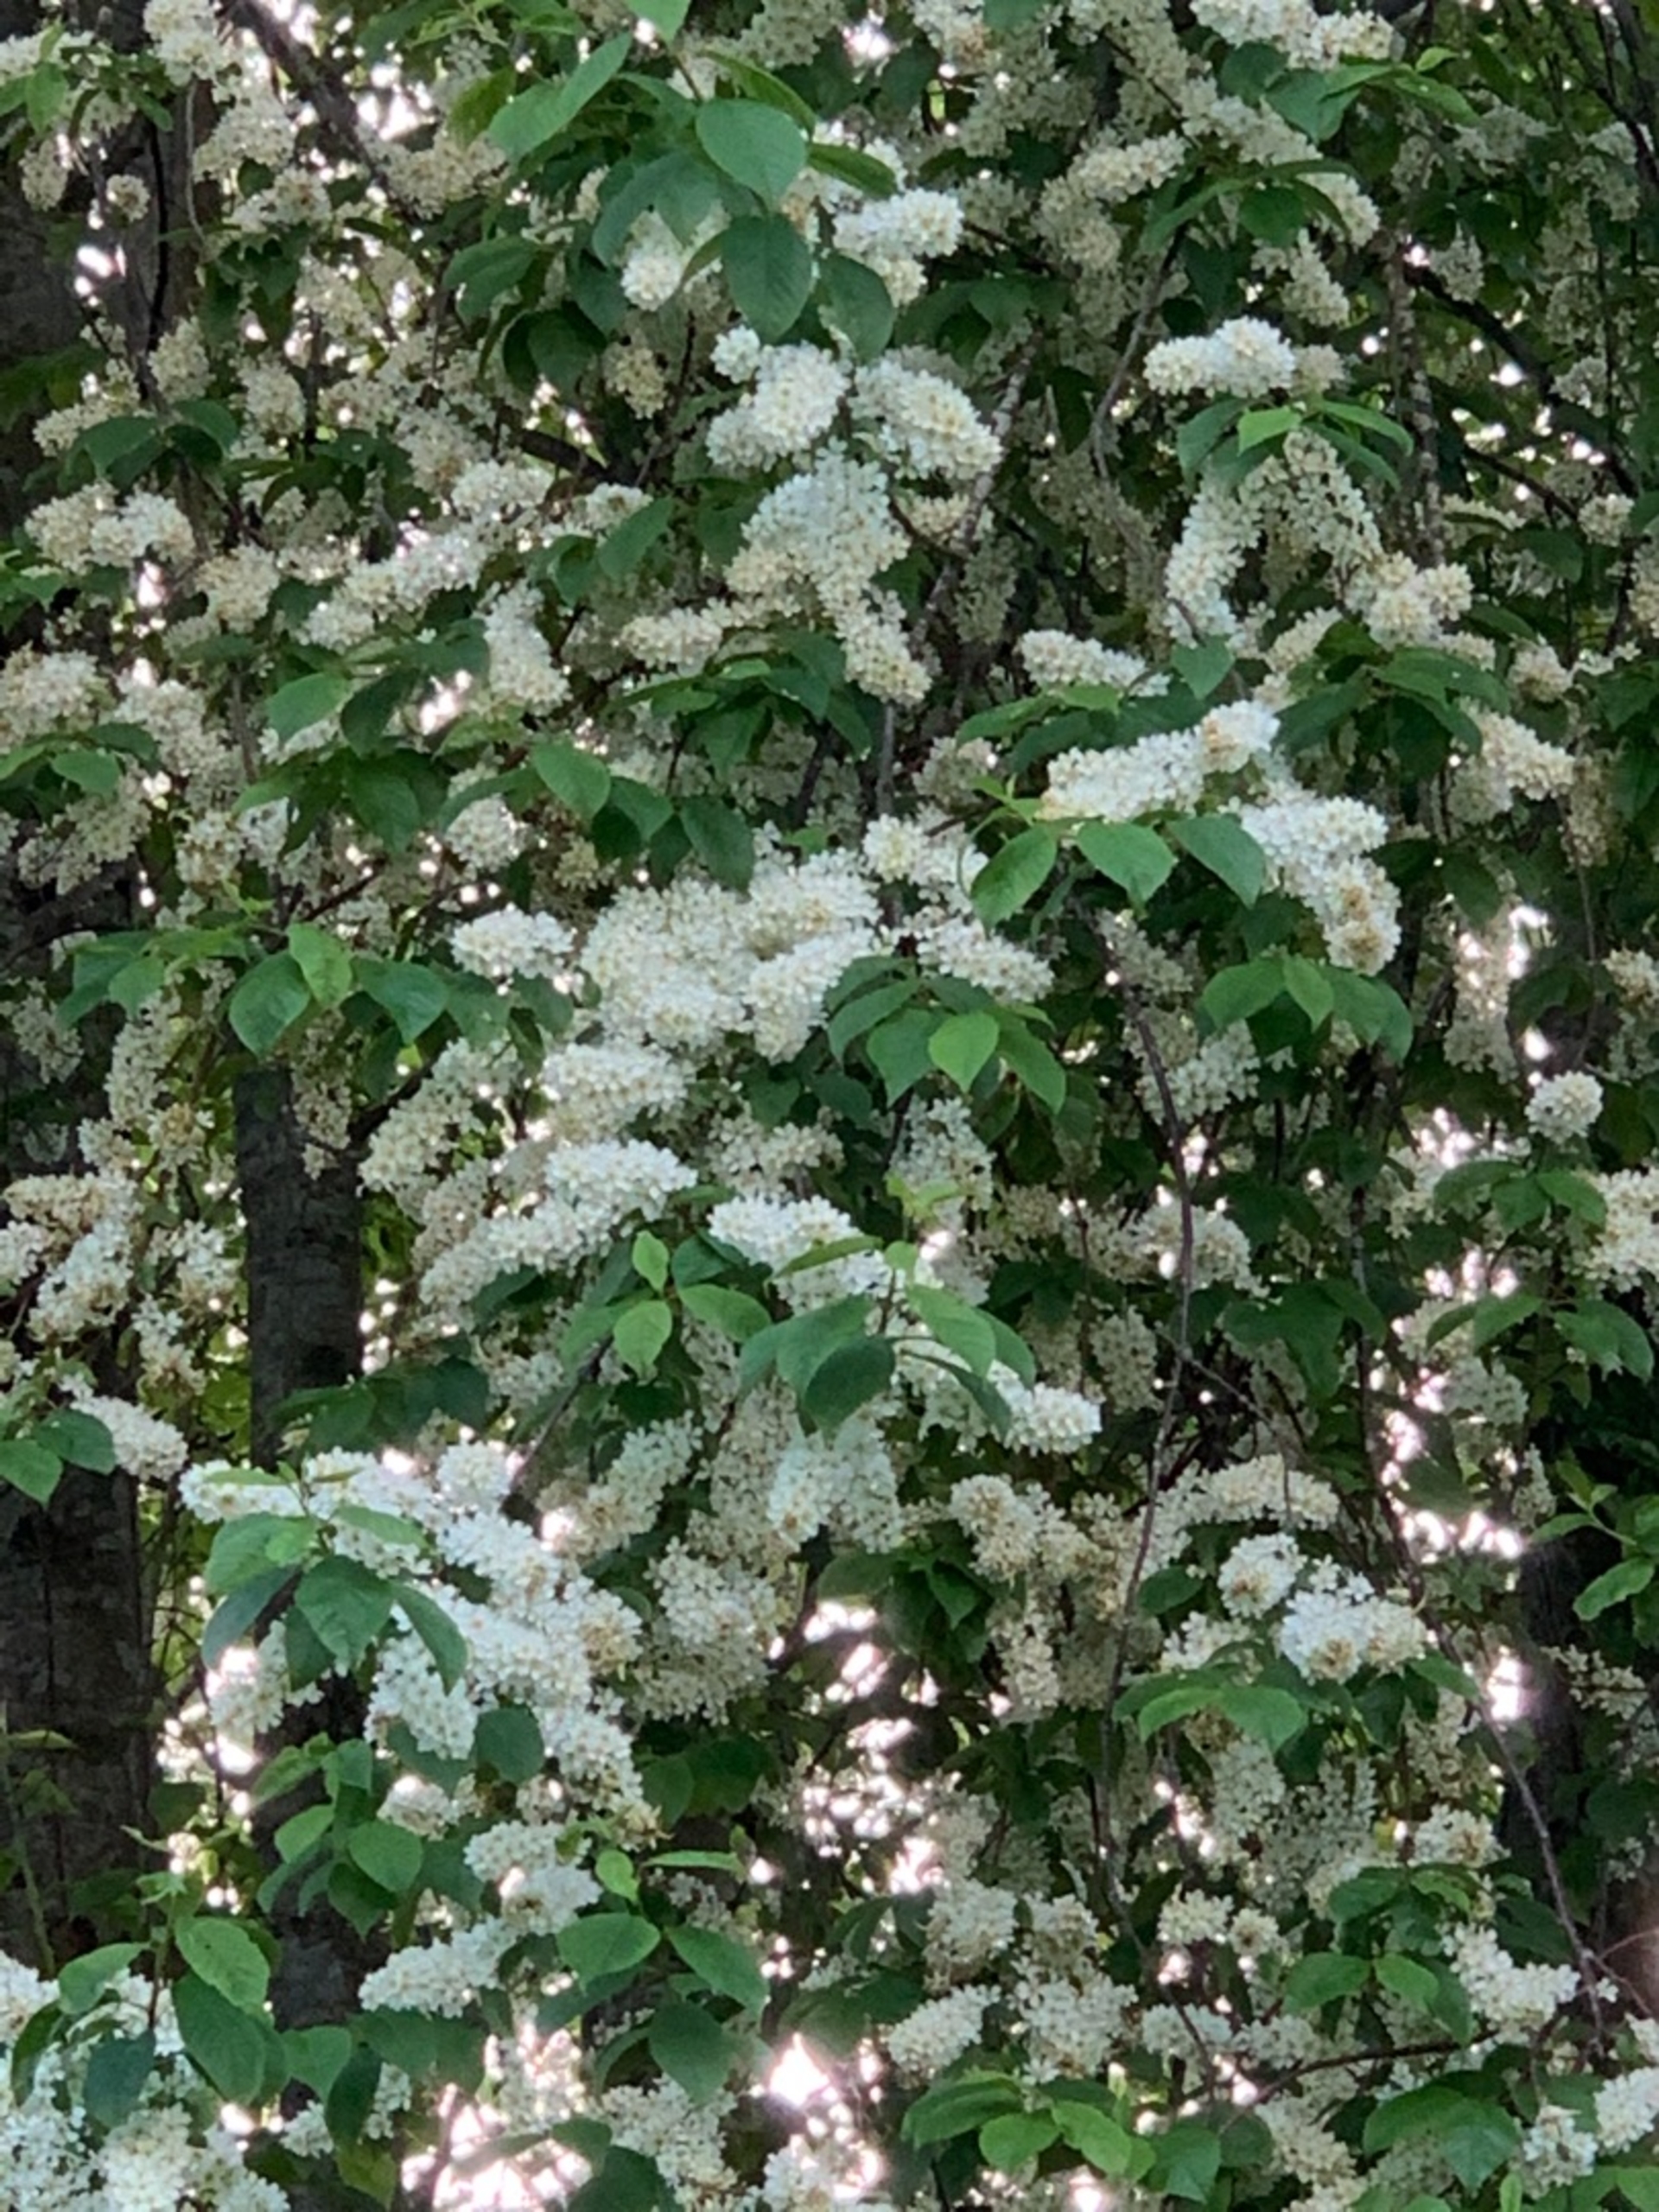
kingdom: Plantae
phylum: Tracheophyta
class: Magnoliopsida
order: Rosales
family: Rosaceae
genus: Prunus
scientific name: Prunus padus
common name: Almindelig hæg
